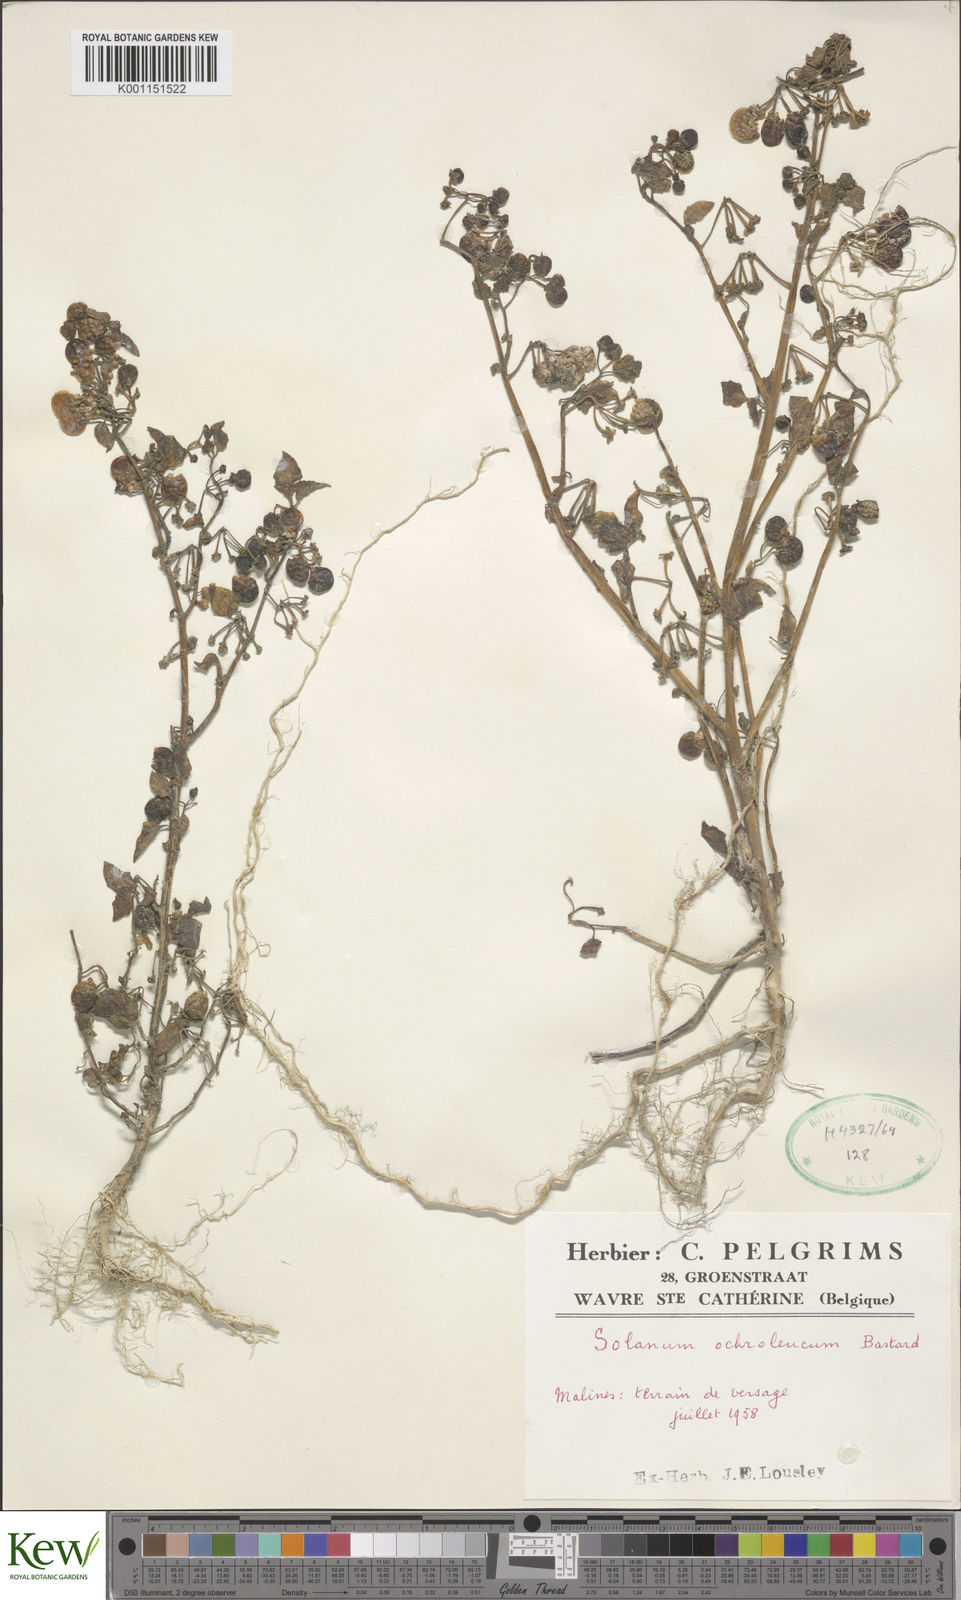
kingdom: Plantae
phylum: Tracheophyta
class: Magnoliopsida
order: Solanales
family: Solanaceae
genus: Solanum
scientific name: Solanum villosum
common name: Red nightshade
